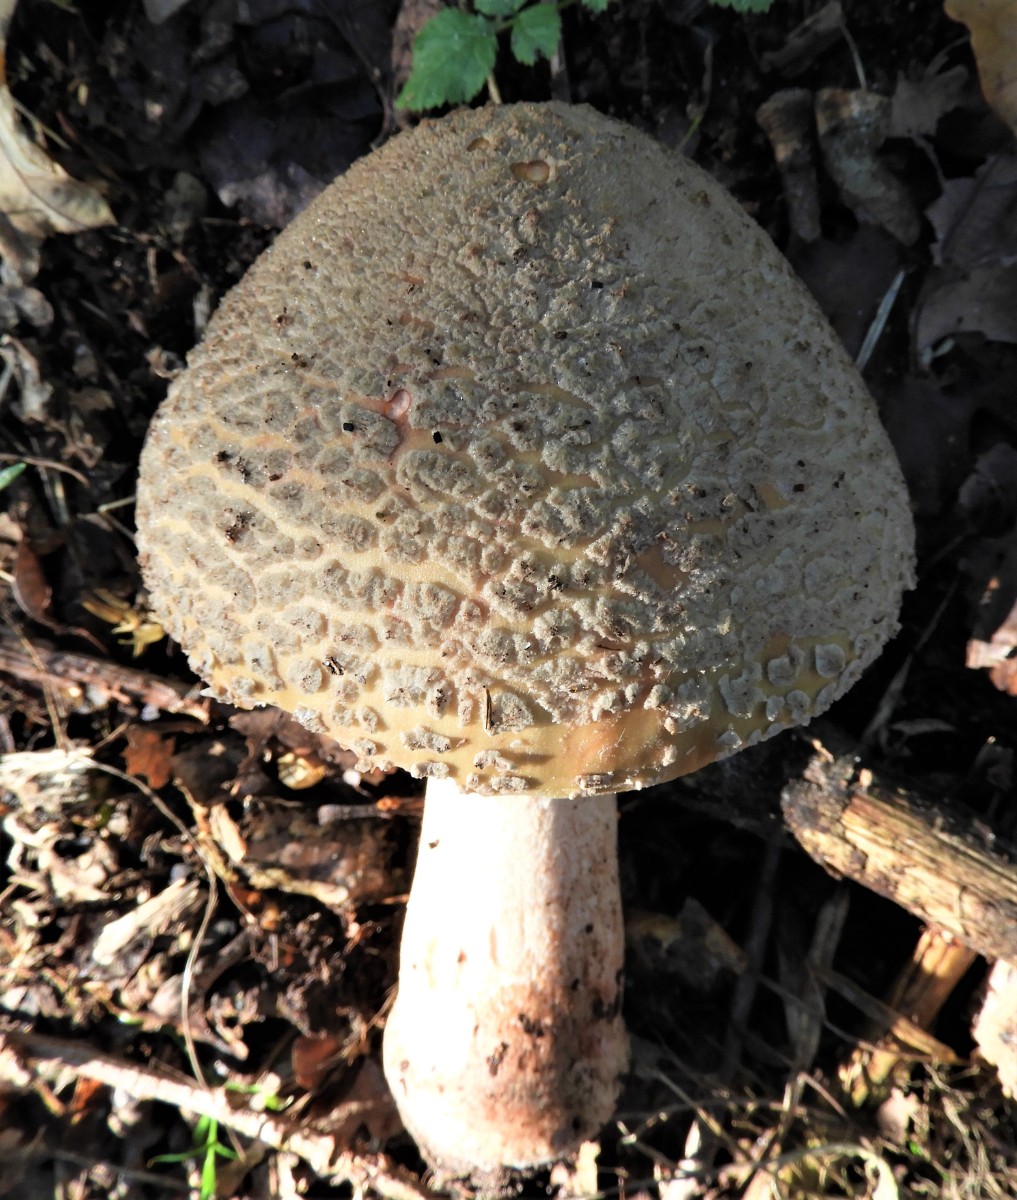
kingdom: Fungi
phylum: Basidiomycota
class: Agaricomycetes
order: Agaricales
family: Amanitaceae
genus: Amanita
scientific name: Amanita rubescens
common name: rødmende fluesvamp
